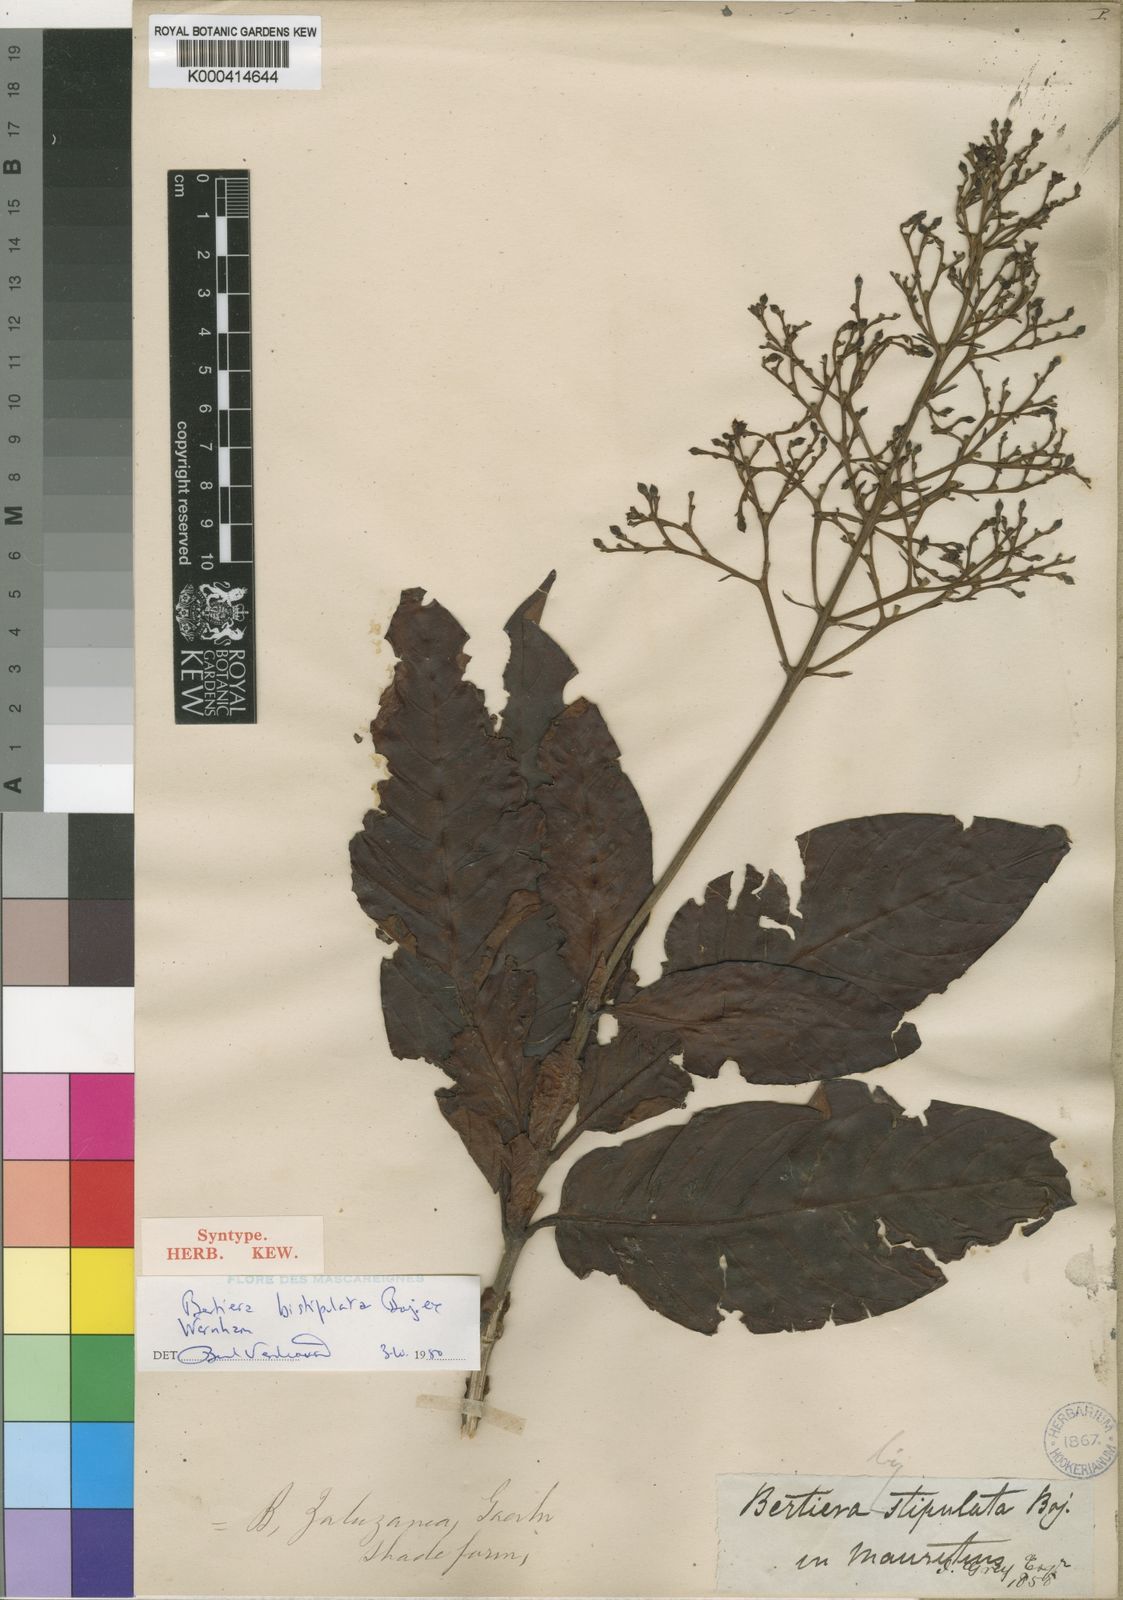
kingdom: Plantae
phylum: Tracheophyta
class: Magnoliopsida
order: Gentianales
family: Rubiaceae
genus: Bertiera
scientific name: Bertiera
